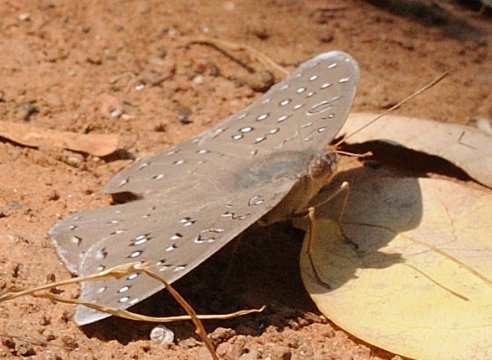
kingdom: Animalia
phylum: Arthropoda
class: Insecta
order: Lepidoptera
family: Nymphalidae
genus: Hamanumida
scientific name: Hamanumida daedalus
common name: Guineafowl
